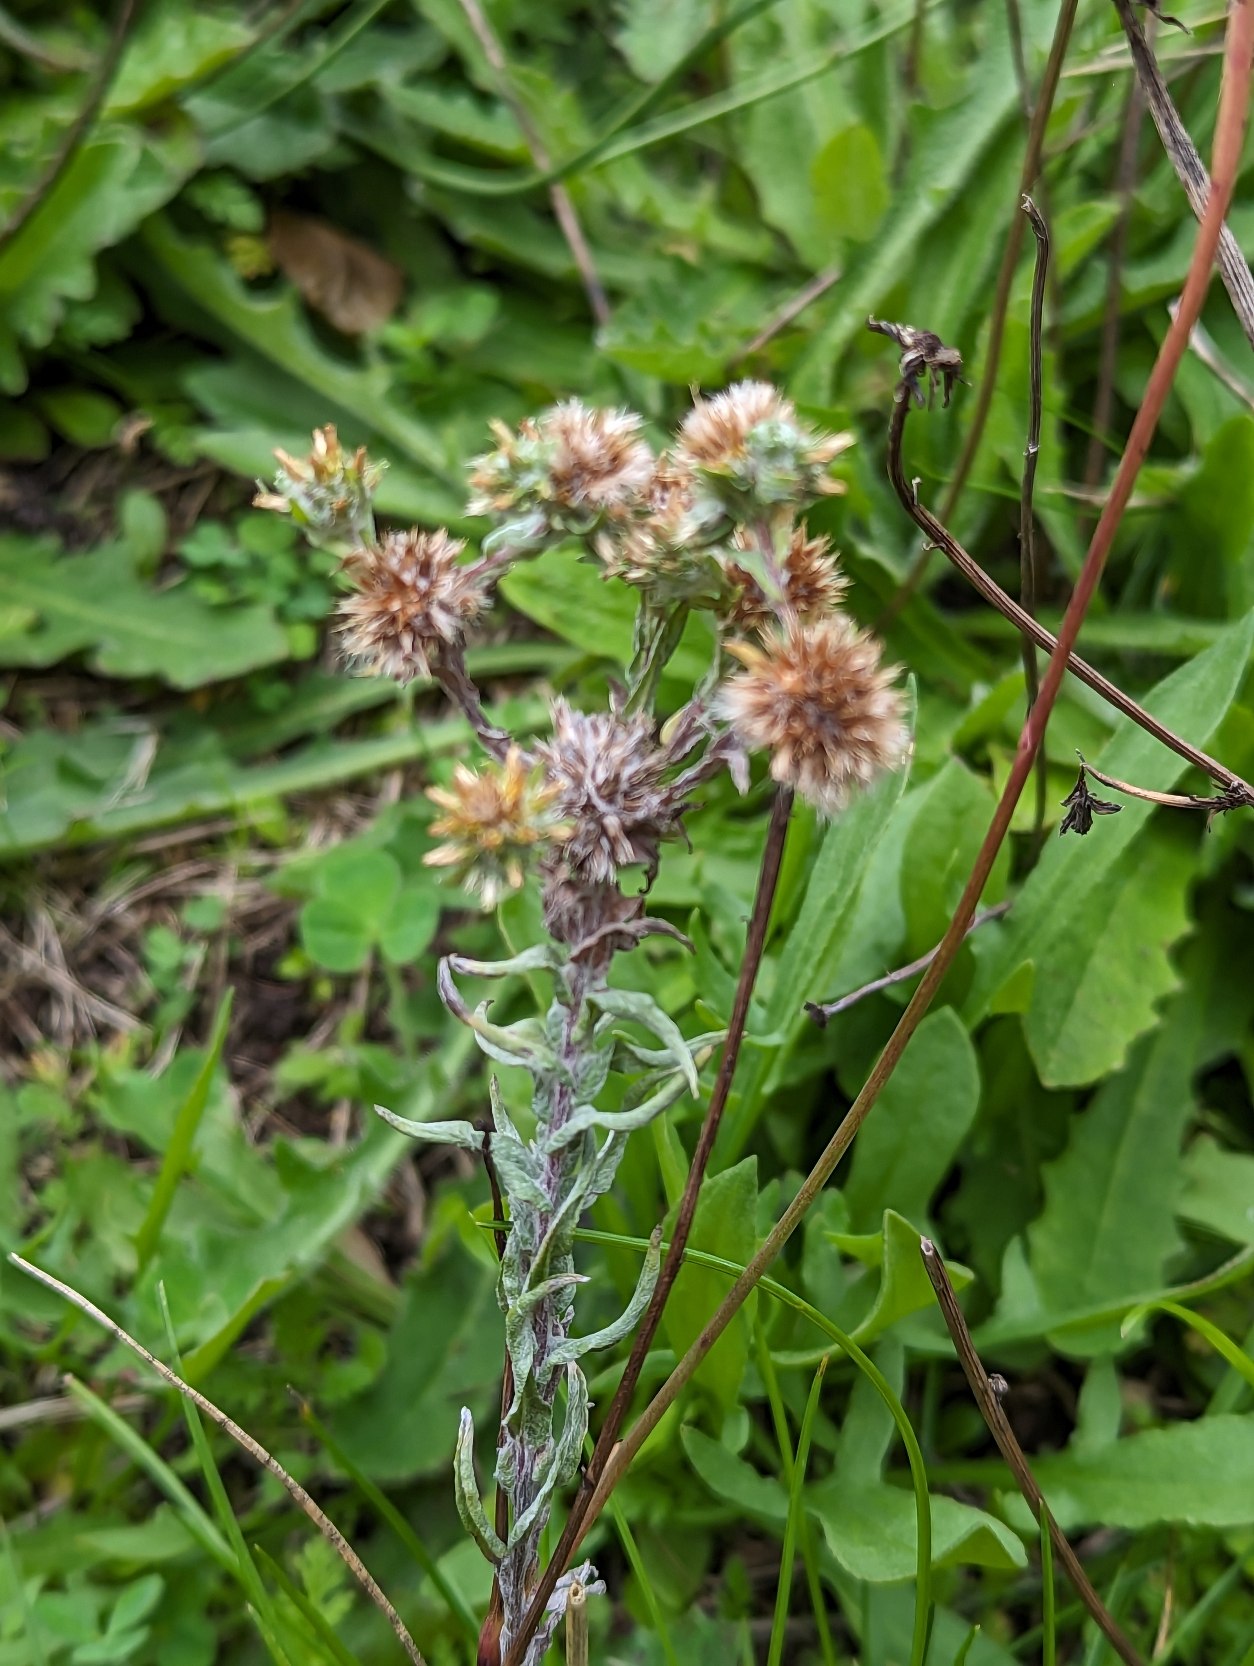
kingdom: Plantae
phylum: Tracheophyta
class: Magnoliopsida
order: Asterales
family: Asteraceae
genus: Filago
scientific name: Filago germanica
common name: Kugle-museurt
